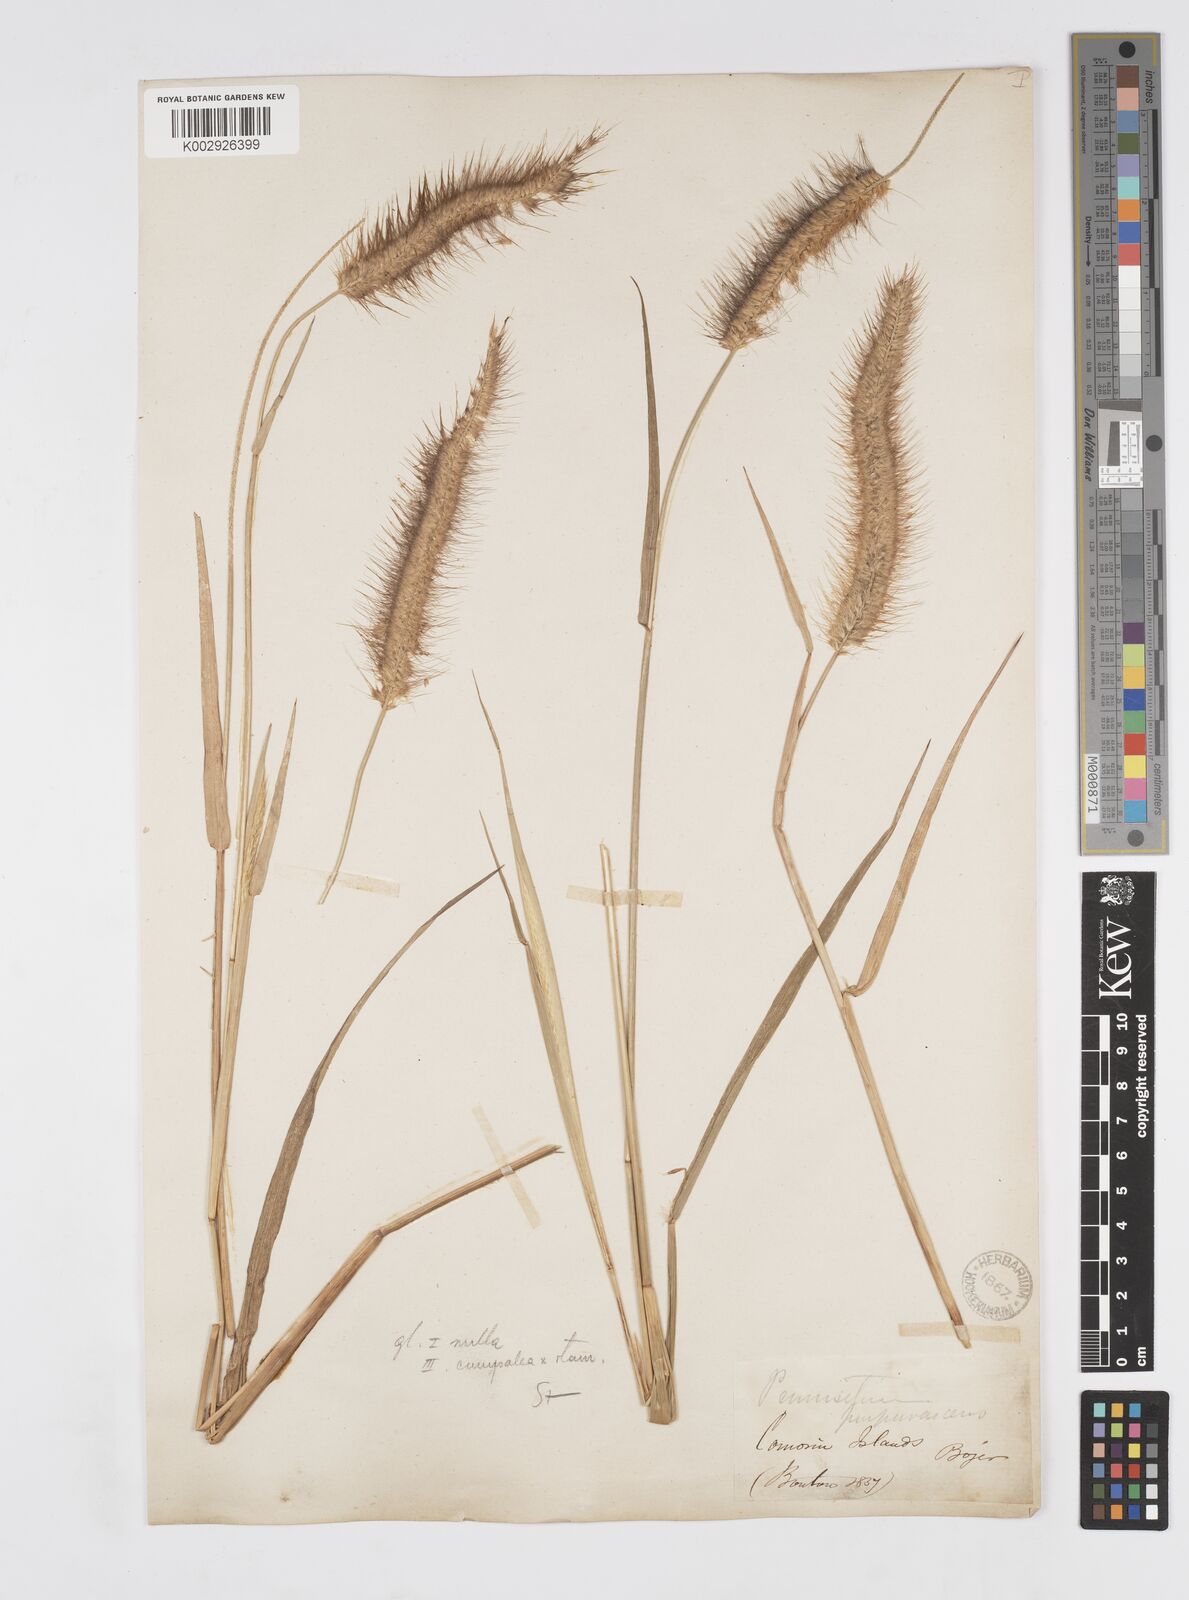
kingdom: Plantae
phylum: Tracheophyta
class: Liliopsida
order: Poales
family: Poaceae
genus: Setaria
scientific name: Setaria parviflora
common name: Knotroot bristle-grass
